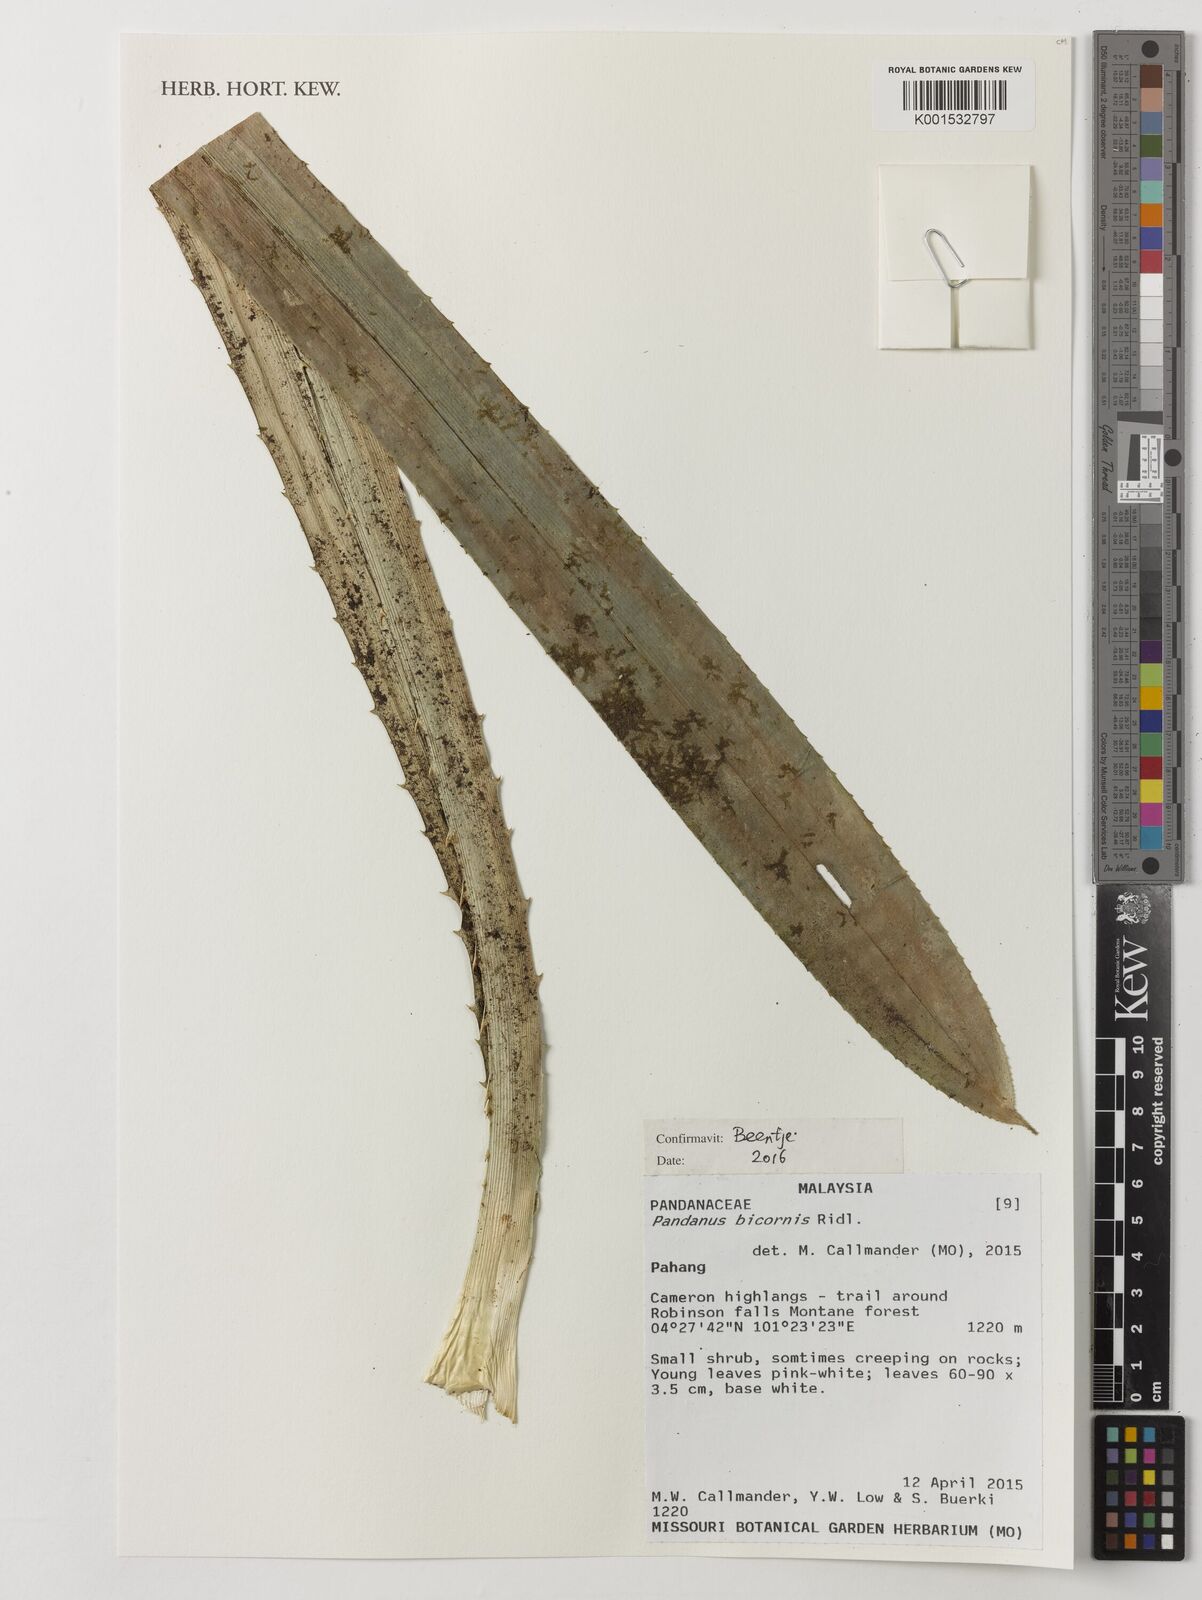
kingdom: Plantae
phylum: Tracheophyta
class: Liliopsida
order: Pandanales
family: Pandanaceae
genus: Pandanus
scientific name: Pandanus bicornis
